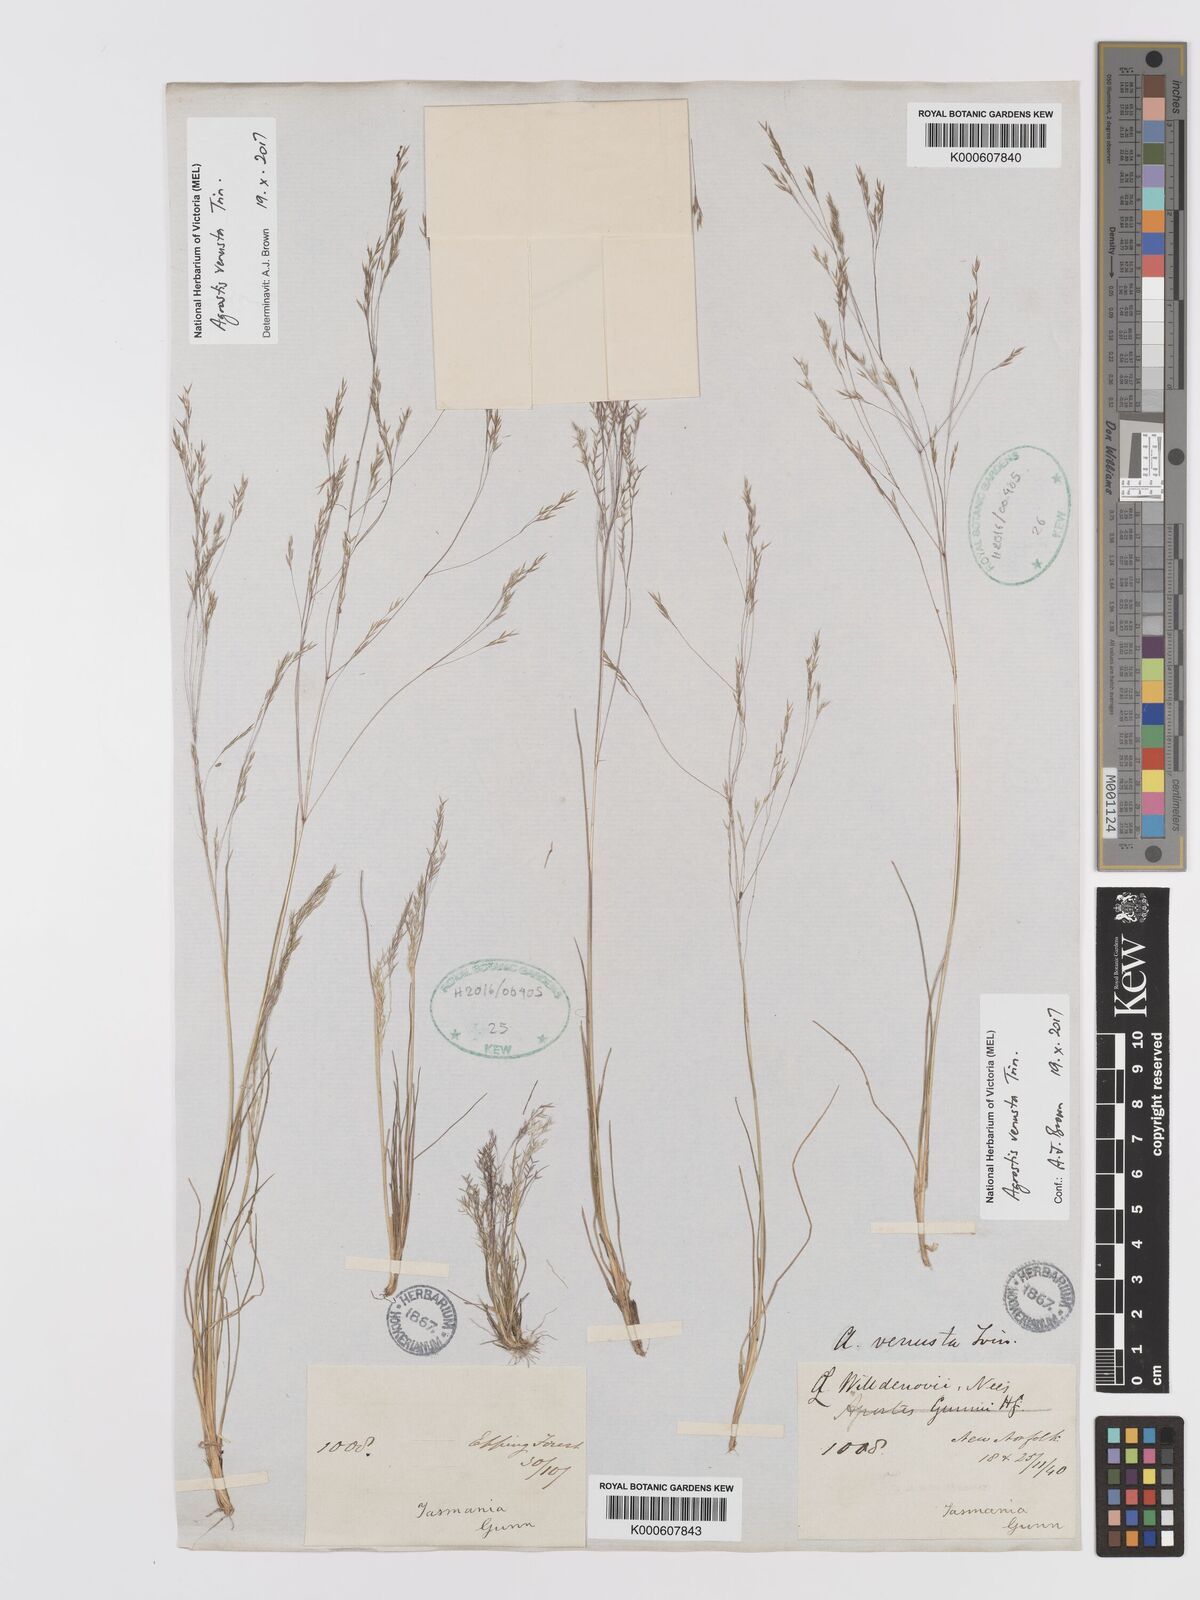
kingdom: Plantae
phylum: Tracheophyta
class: Liliopsida
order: Poales
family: Poaceae
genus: Agrostis
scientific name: Agrostis venusta
